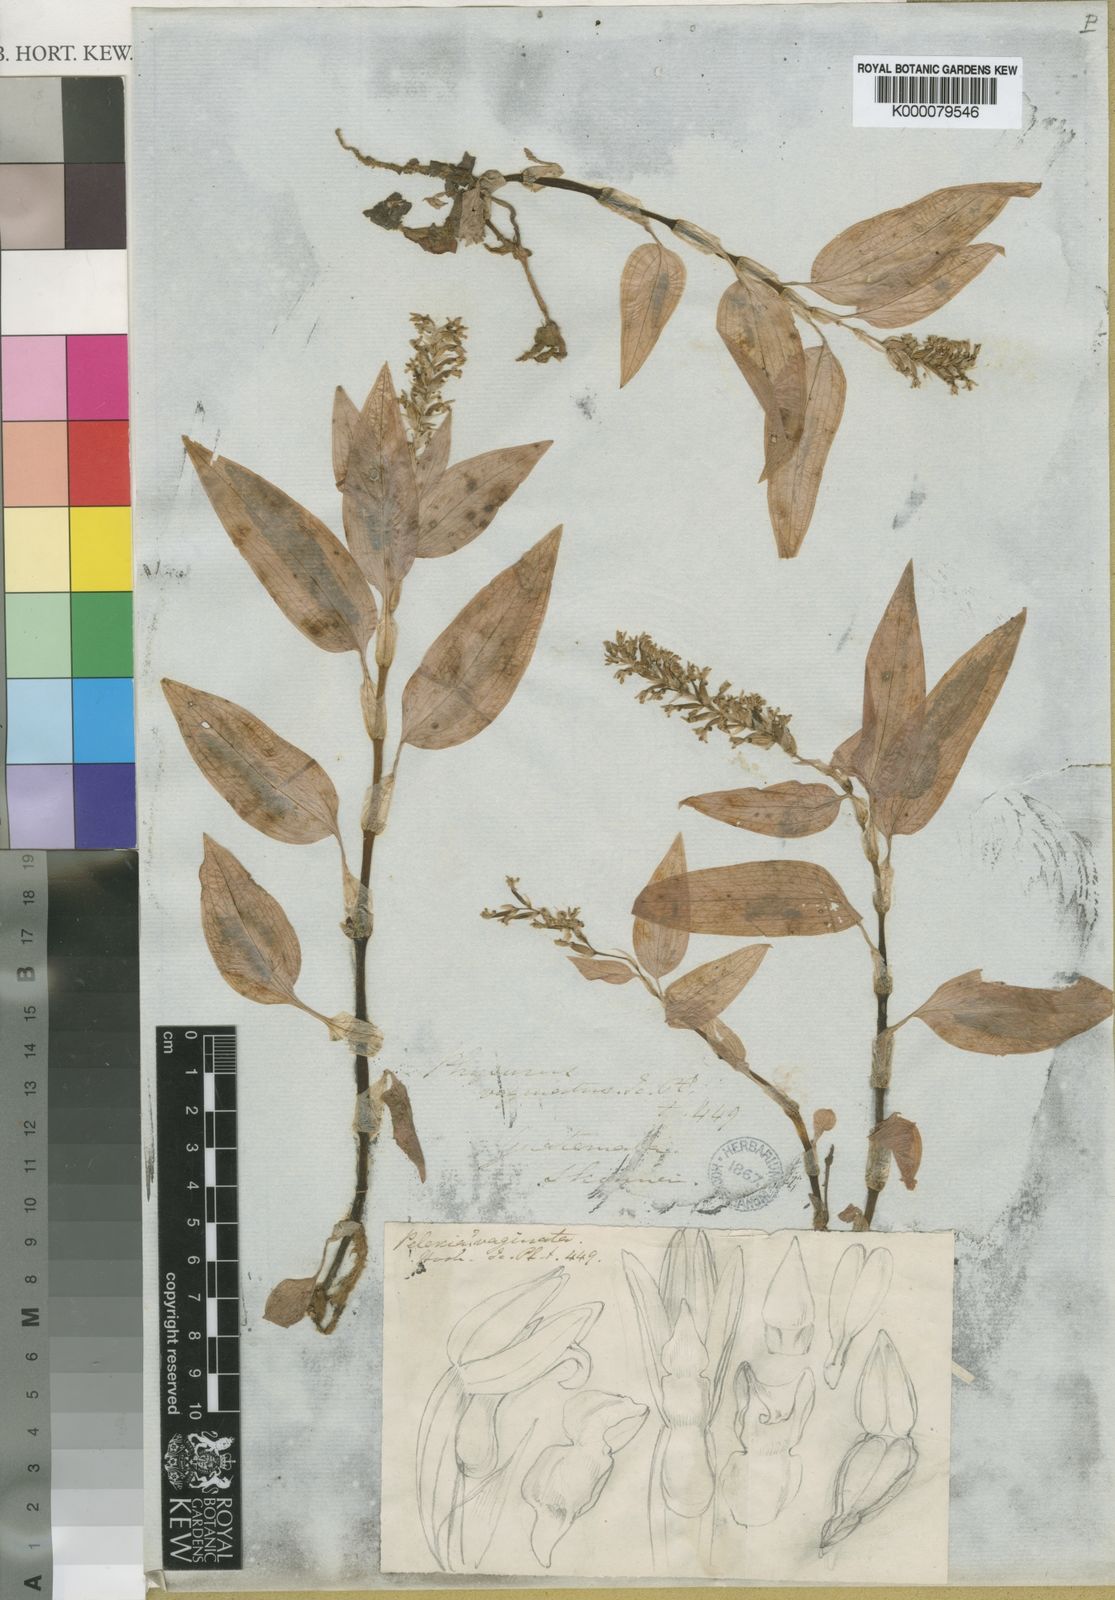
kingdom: Plantae
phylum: Tracheophyta
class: Liliopsida
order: Asparagales
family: Orchidaceae
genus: Aspidogyne
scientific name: Aspidogyne querceticola
